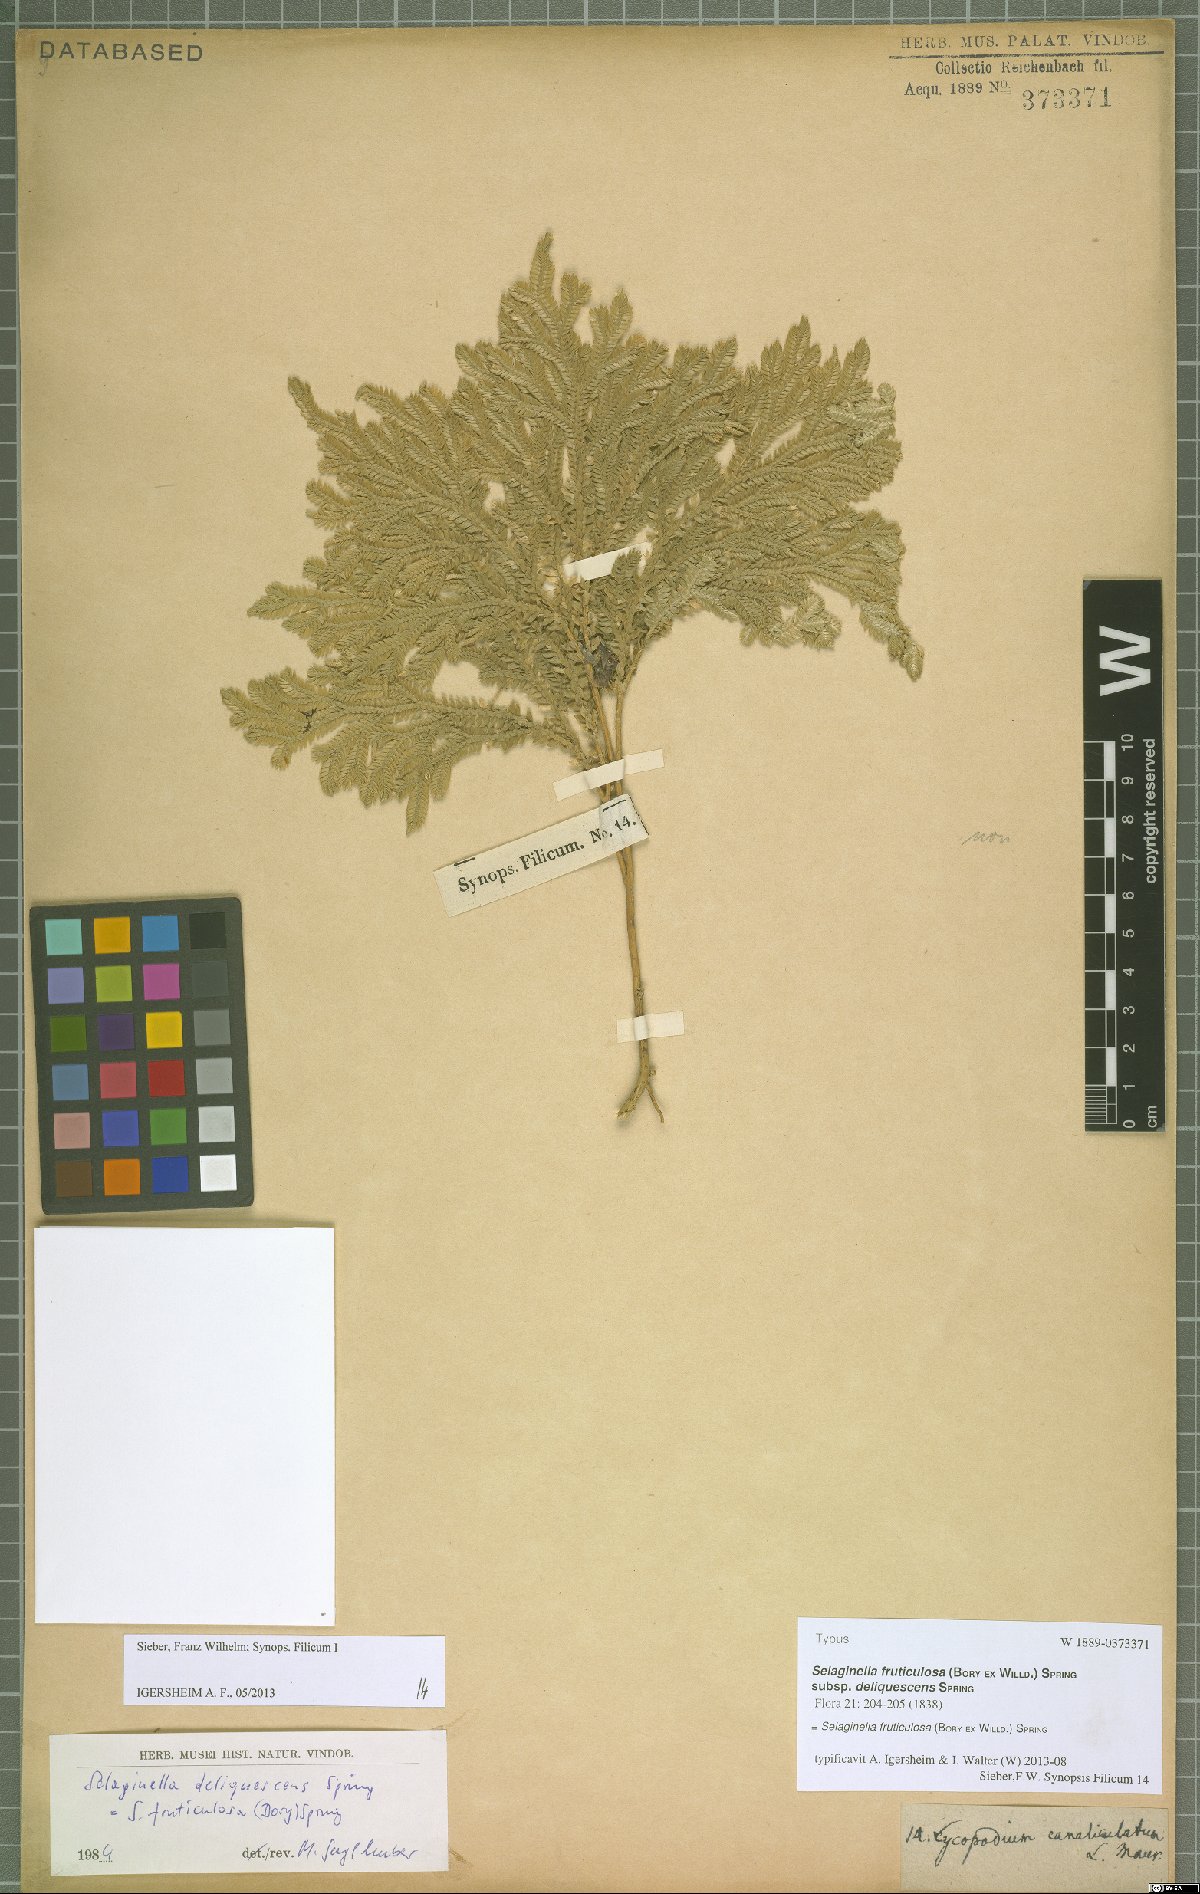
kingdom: Plantae
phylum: Tracheophyta
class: Lycopodiopsida
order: Selaginellales
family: Selaginellaceae
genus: Selaginella
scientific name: Selaginella fruticulosa
